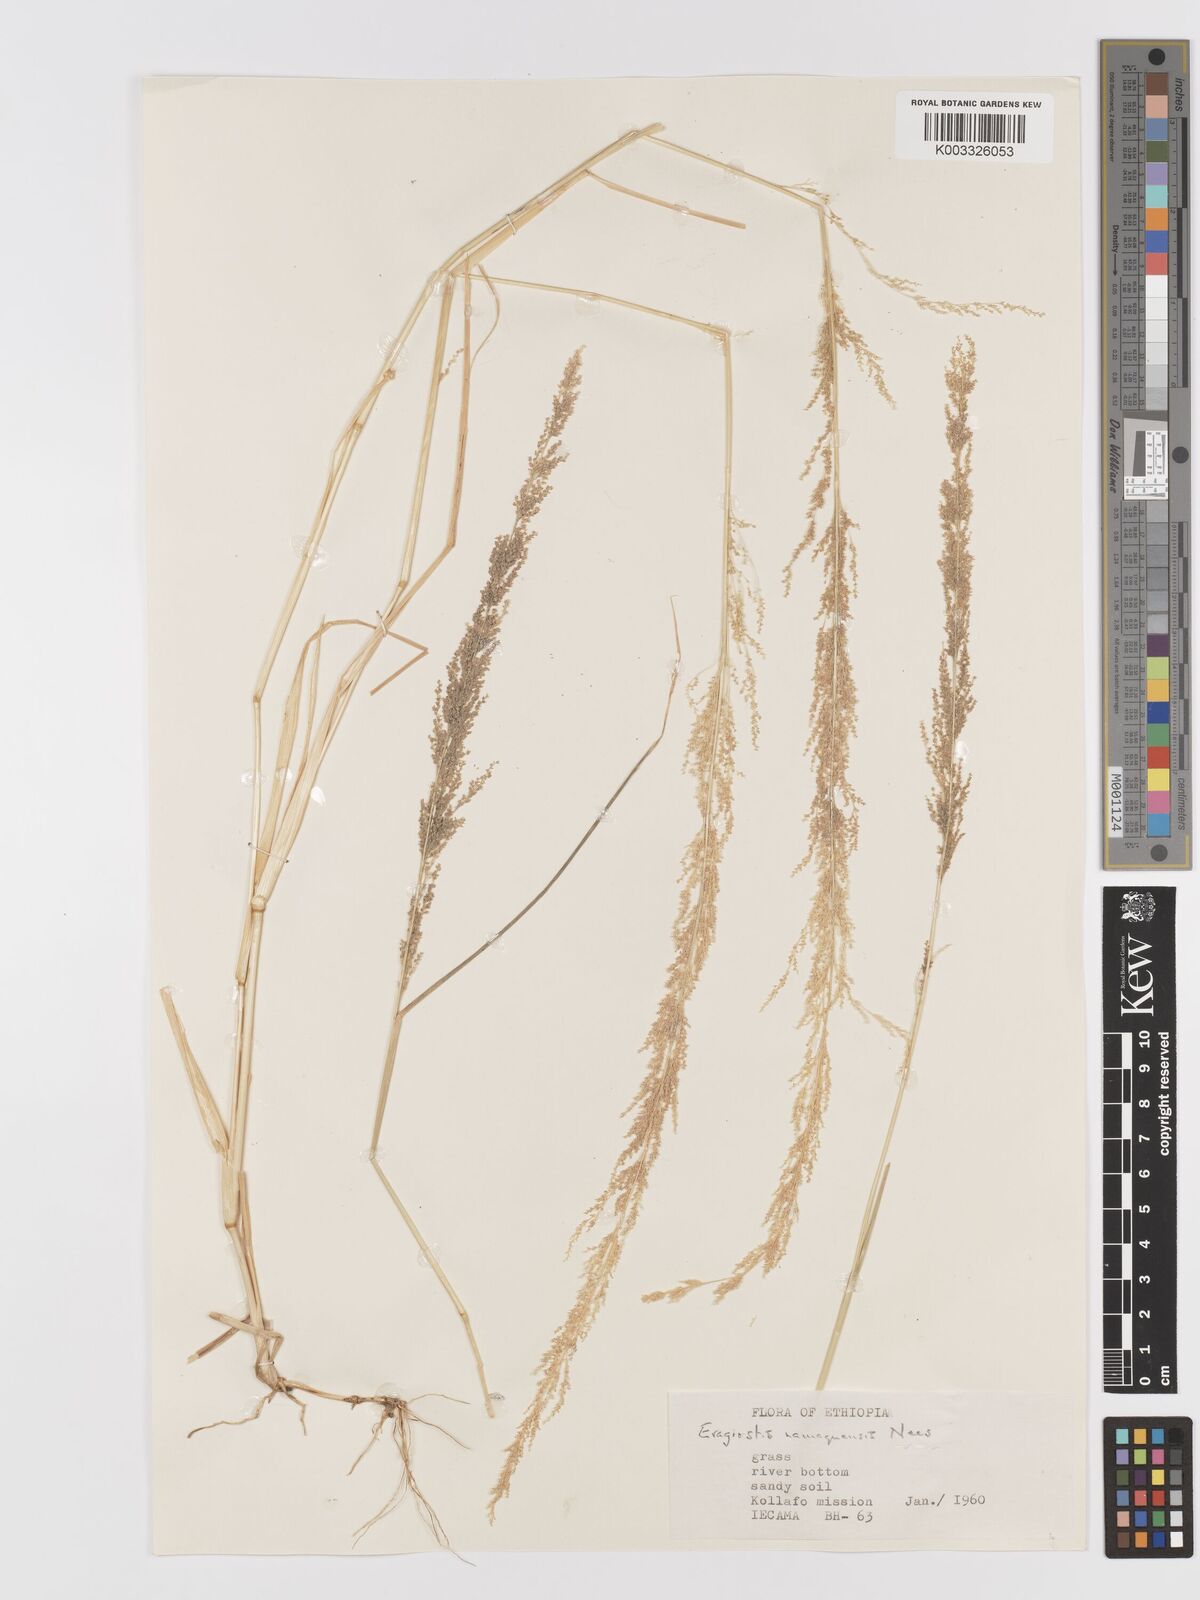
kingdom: Plantae
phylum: Tracheophyta
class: Liliopsida
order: Poales
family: Poaceae
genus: Eragrostis
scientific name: Eragrostis japonica
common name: Pond lovegrass
